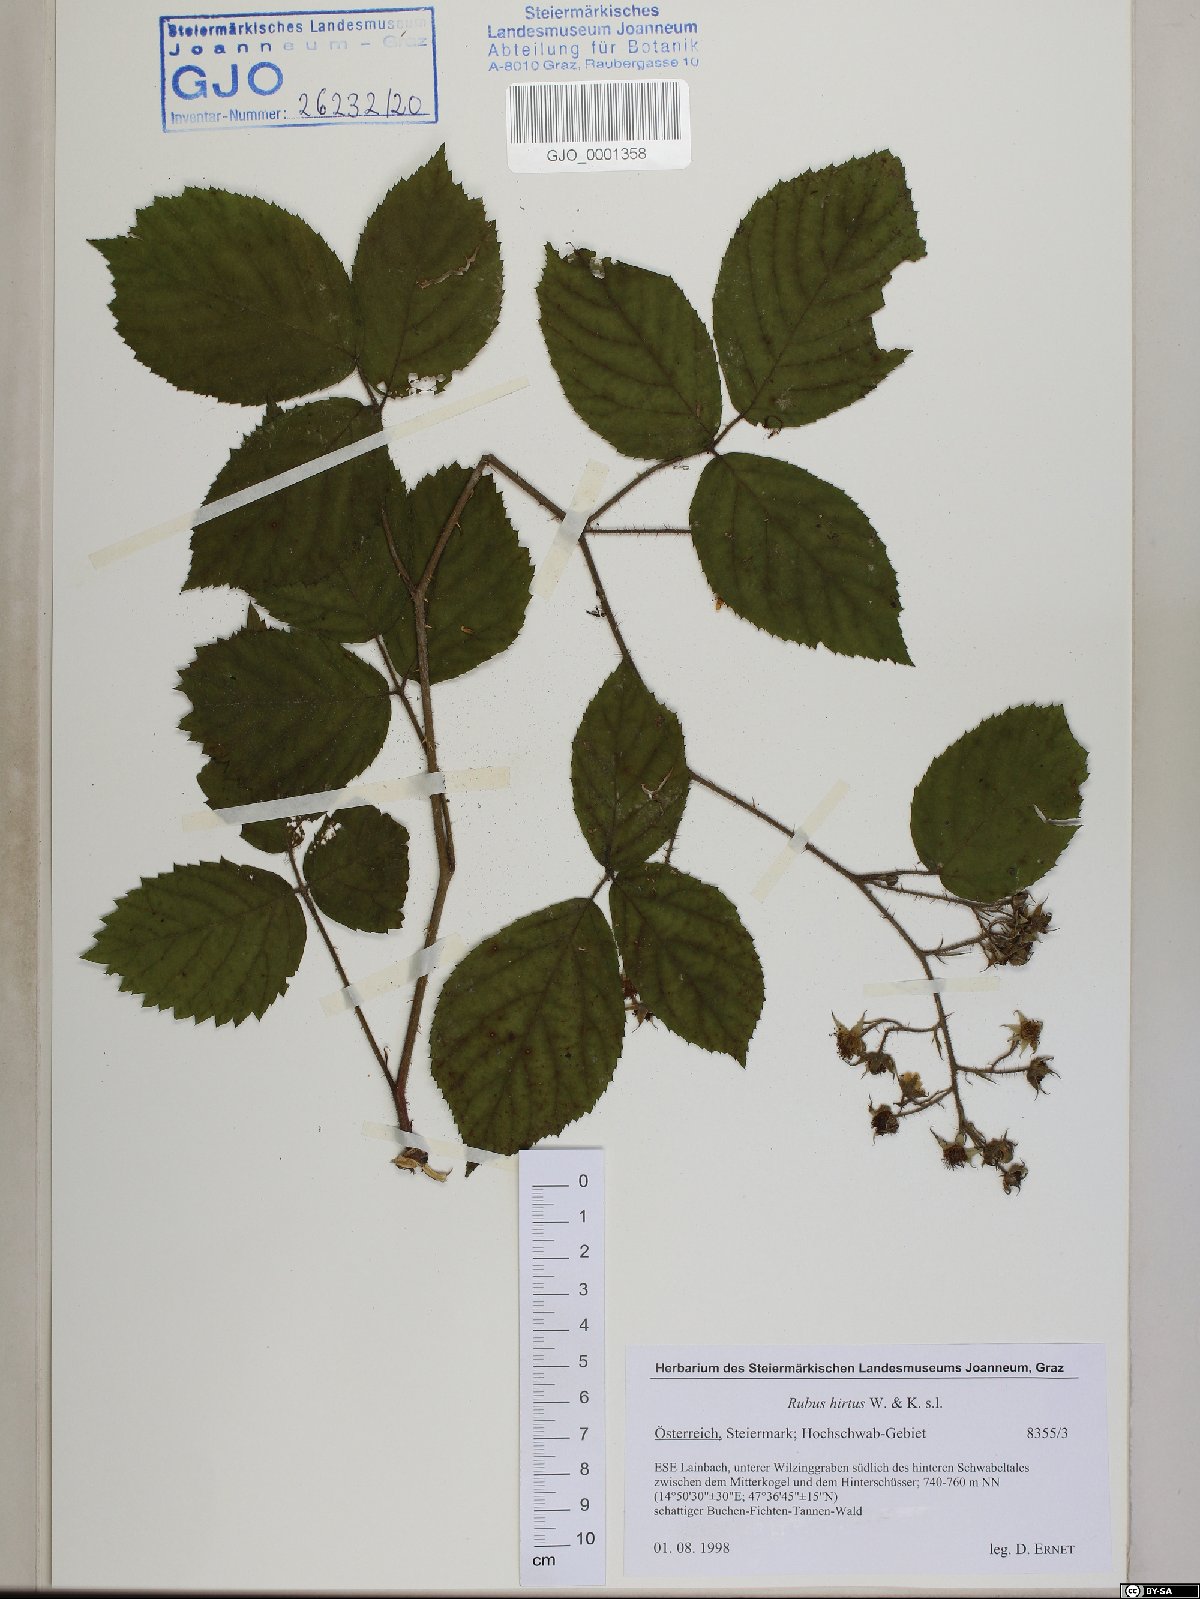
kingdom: Plantae
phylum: Tracheophyta
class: Magnoliopsida
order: Rosales
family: Rosaceae
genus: Rubus
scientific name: Rubus hirtus
